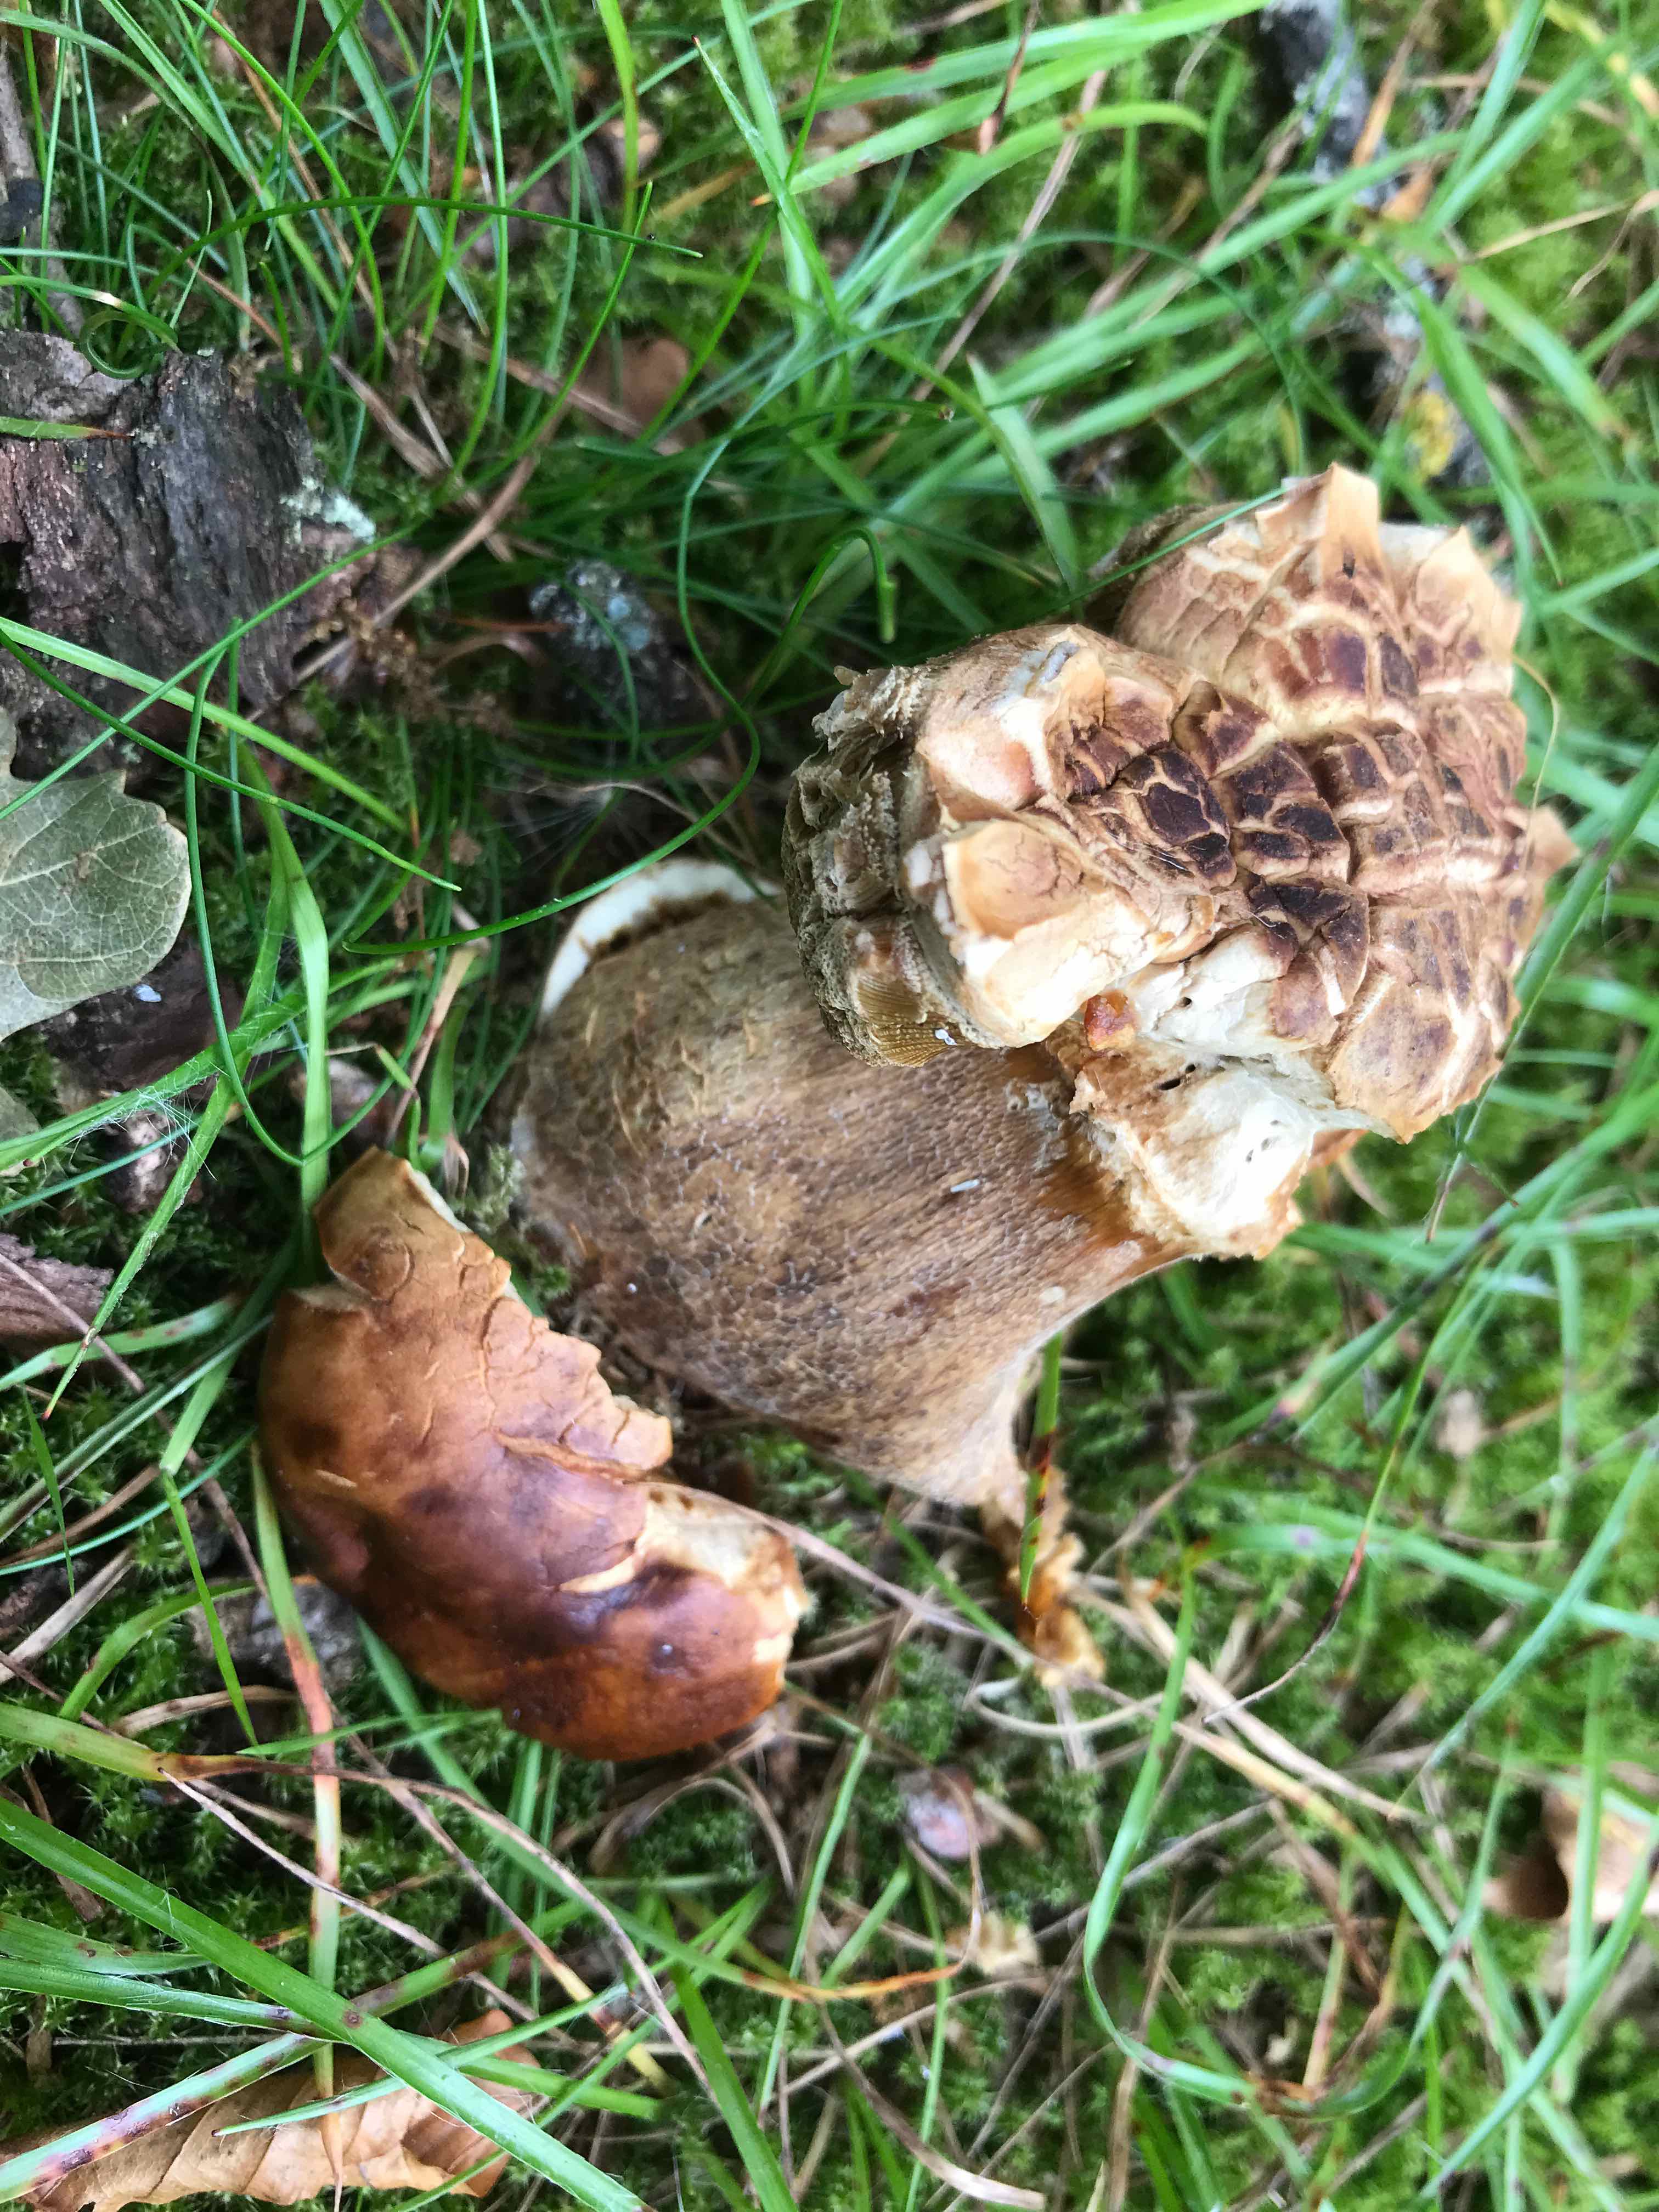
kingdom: Fungi
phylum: Basidiomycota
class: Agaricomycetes
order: Boletales
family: Boletaceae
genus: Boletus
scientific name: Boletus reticulatus
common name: sommer-rørhat
